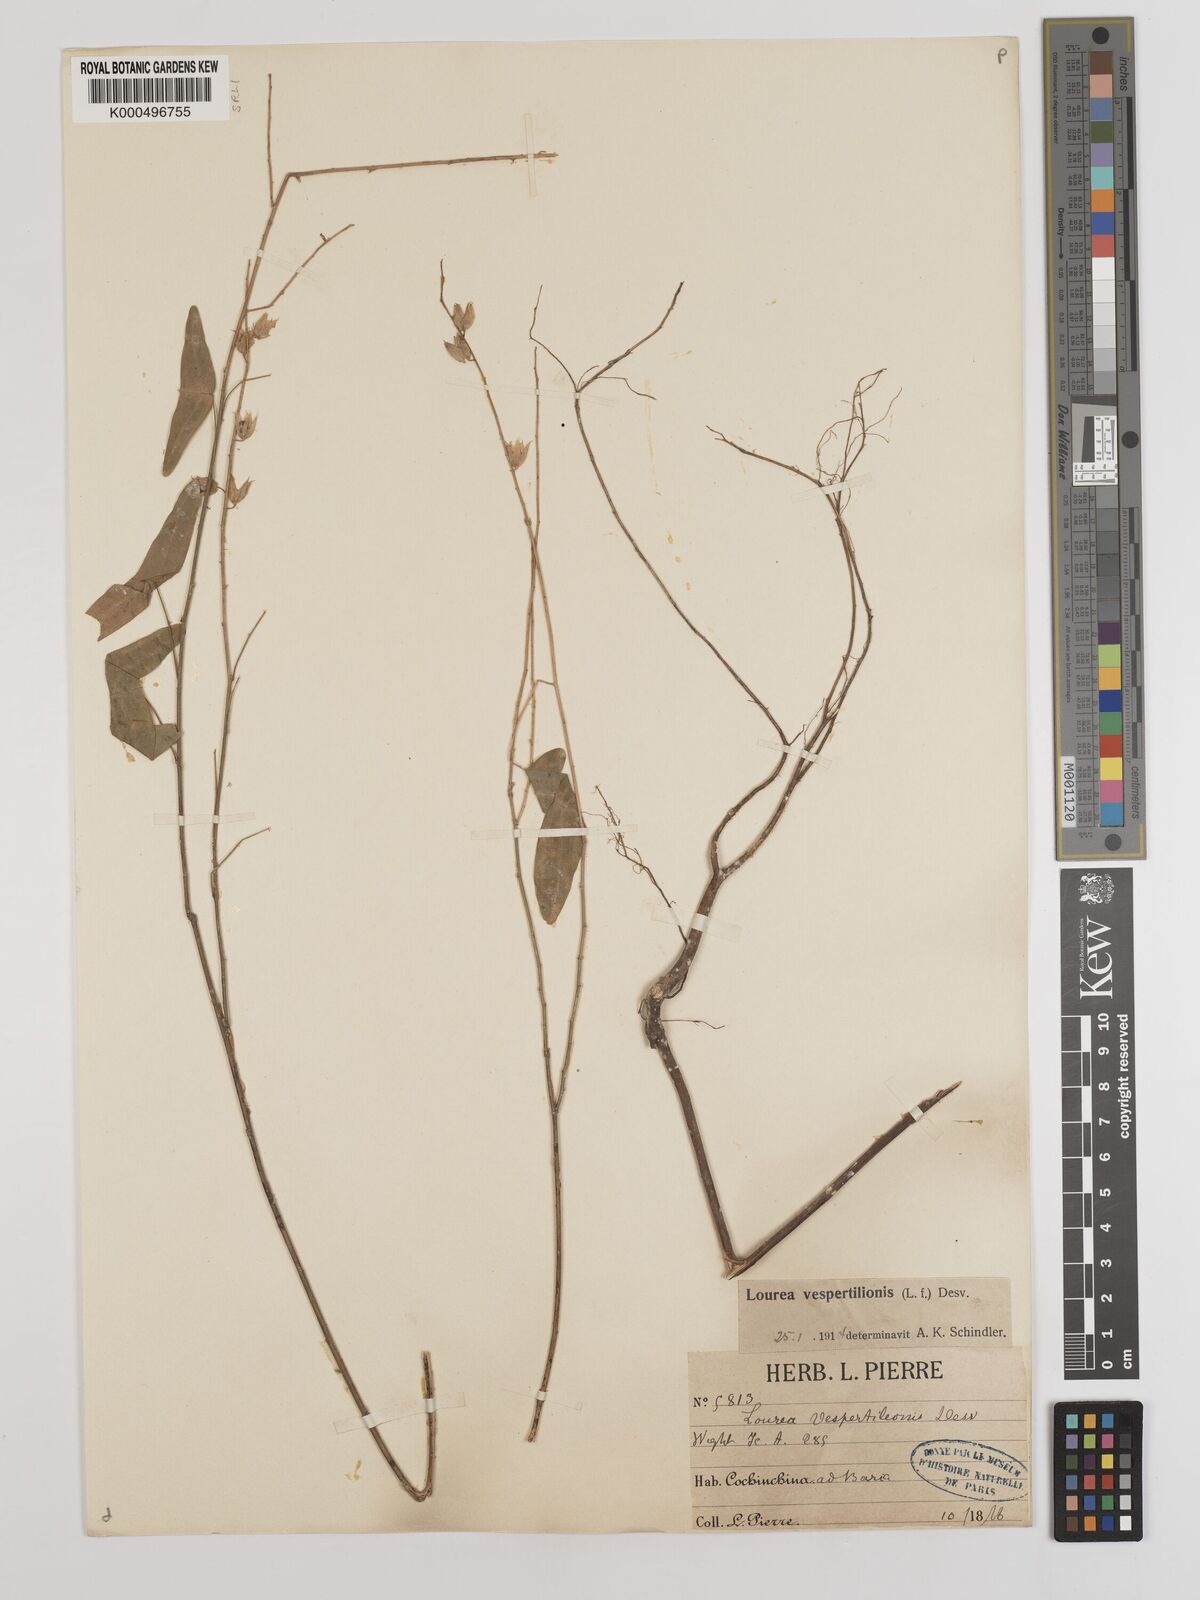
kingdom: Plantae
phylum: Tracheophyta
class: Magnoliopsida
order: Fabales
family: Fabaceae
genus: Christia
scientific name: Christia vespertilionis
